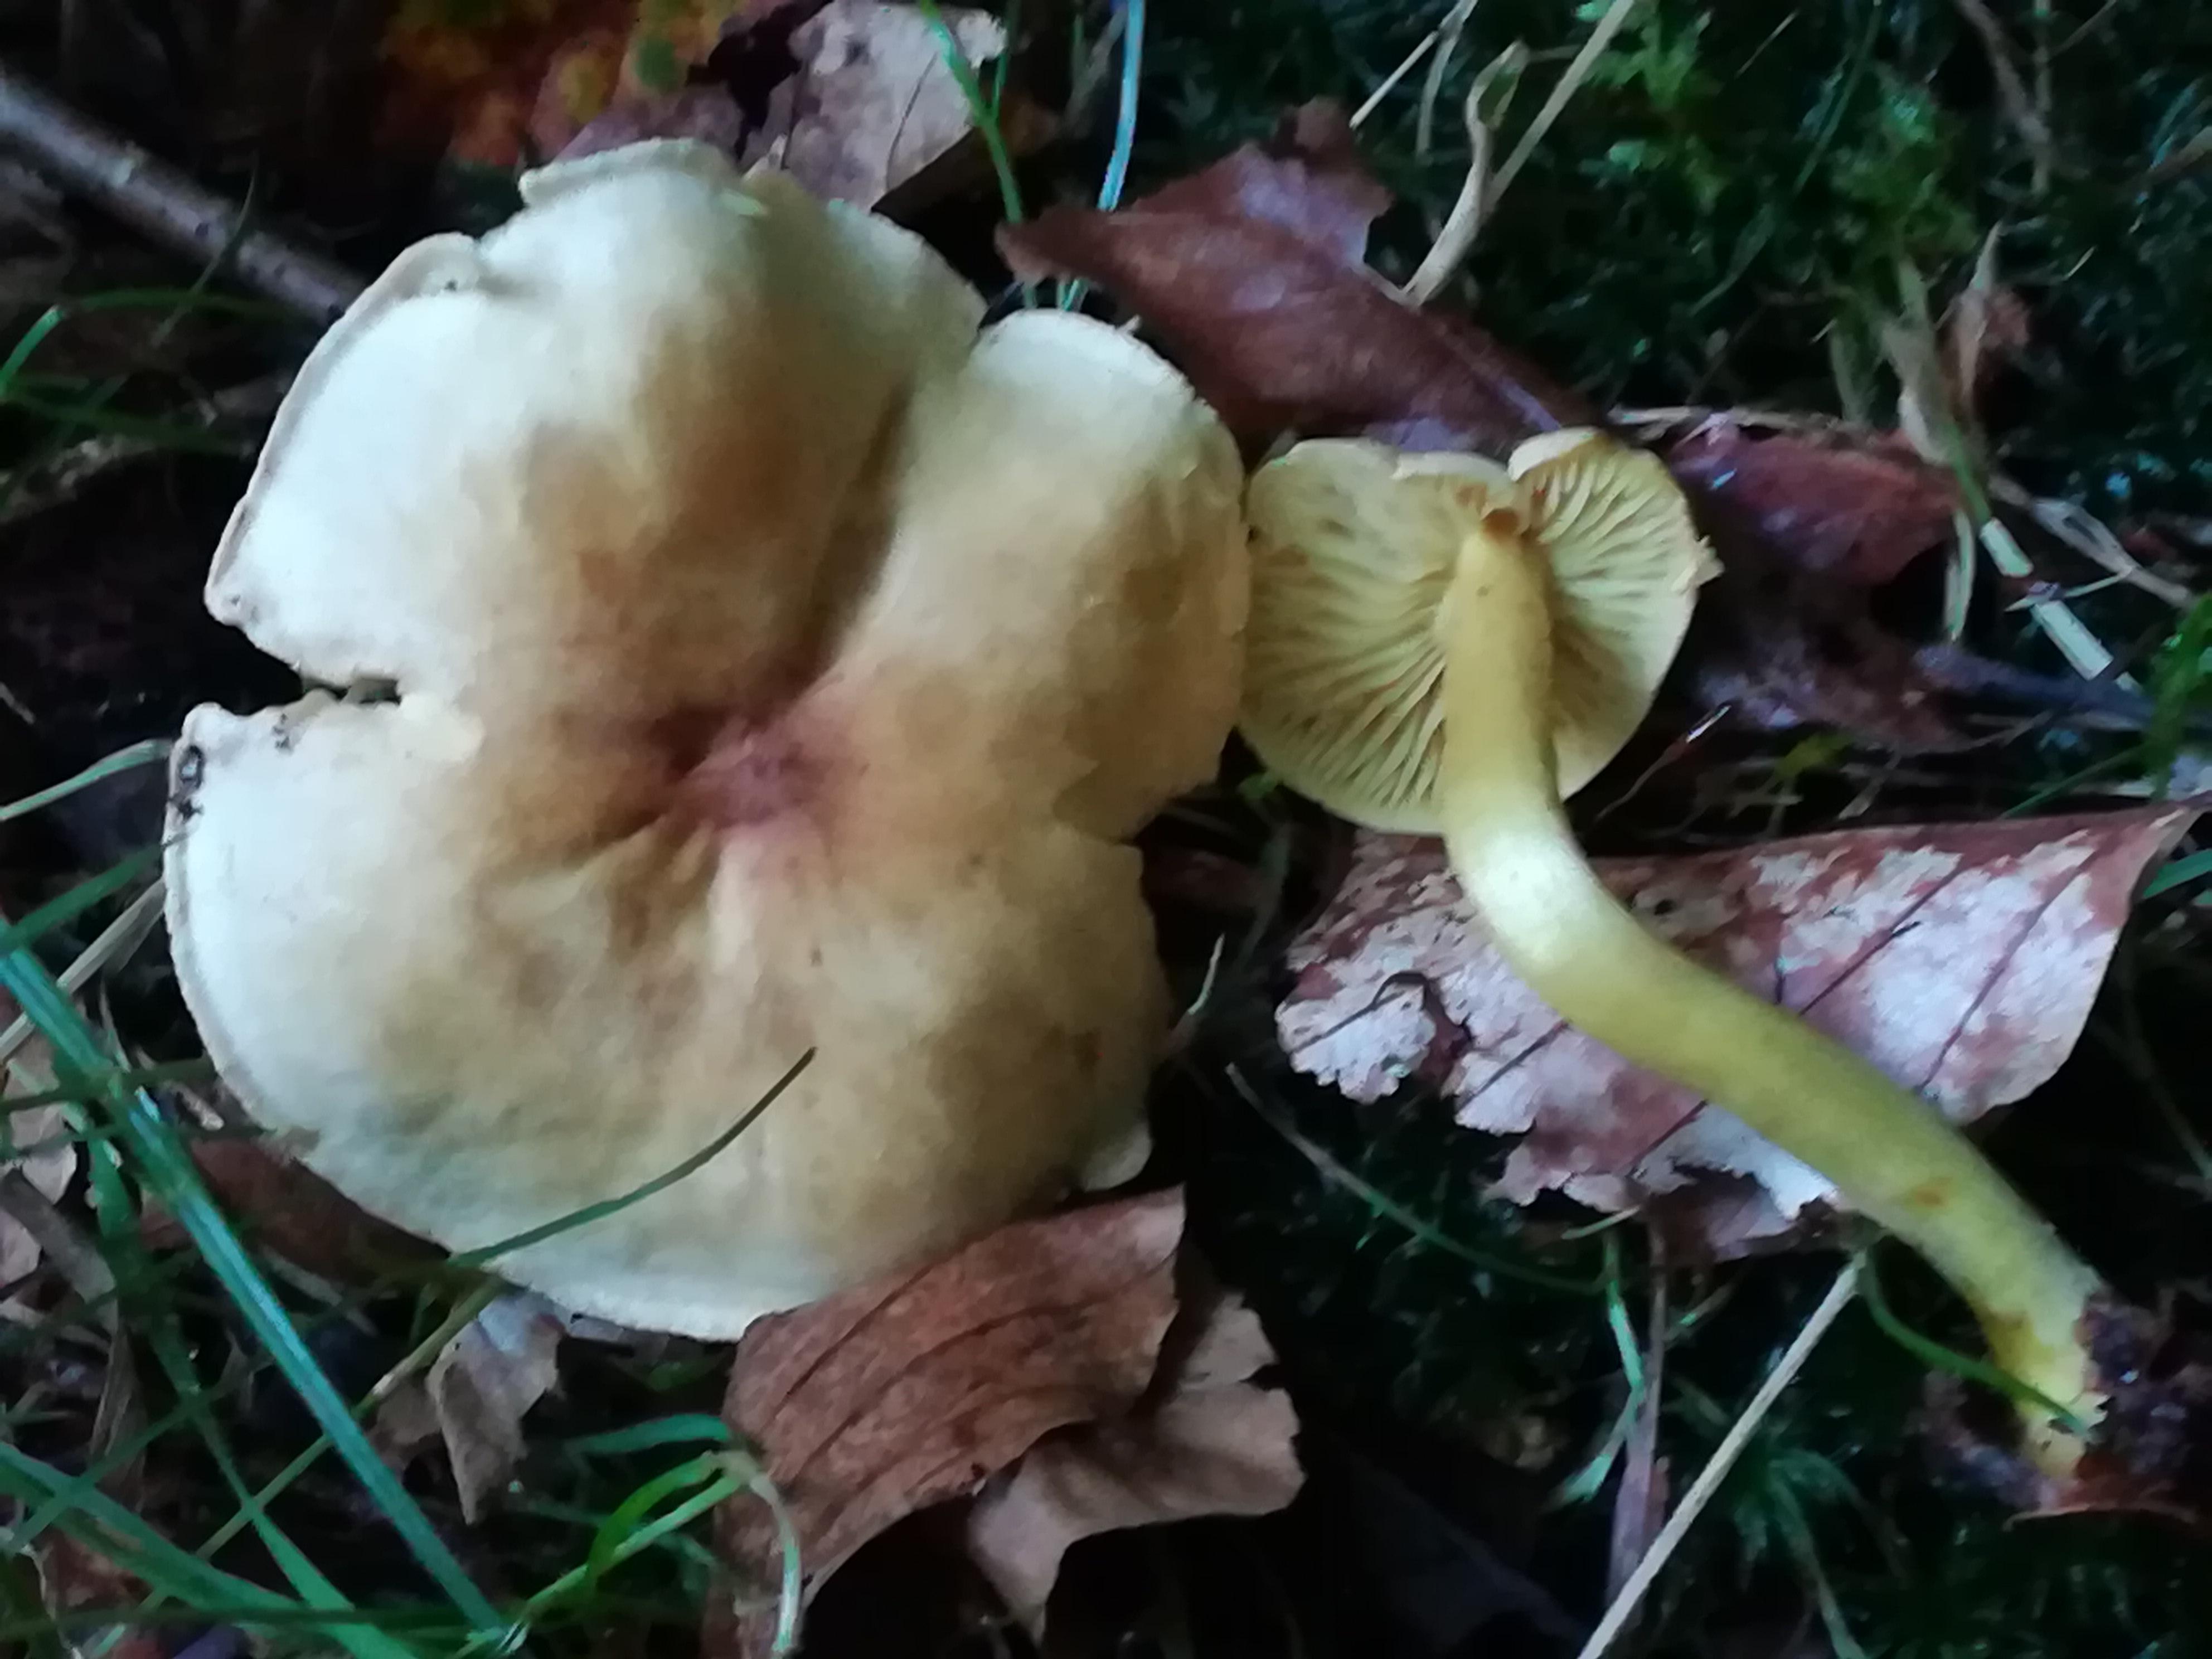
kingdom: Fungi
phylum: Basidiomycota
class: Agaricomycetes
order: Agaricales
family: Tricholomataceae
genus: Tricholoma
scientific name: Tricholoma sulphureum
